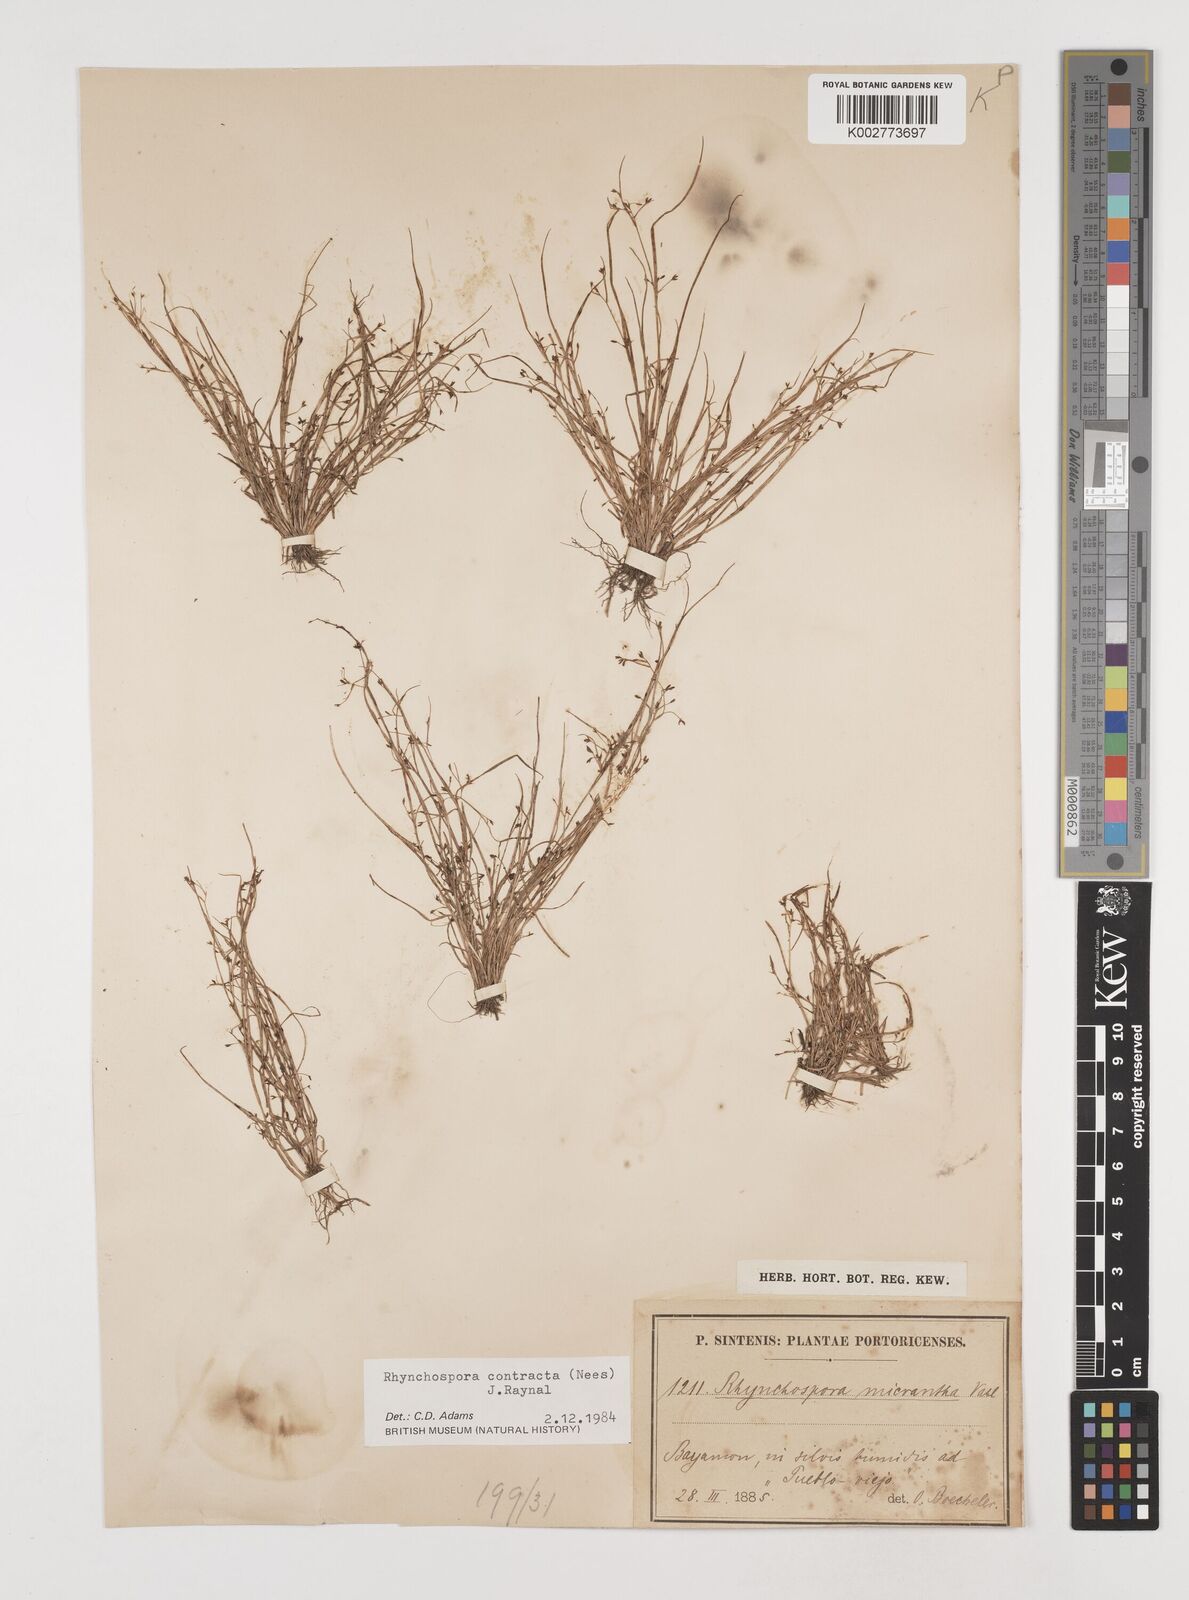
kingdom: Plantae
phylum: Tracheophyta
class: Liliopsida
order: Poales
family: Cyperaceae
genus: Rhynchospora
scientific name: Rhynchospora contracta
